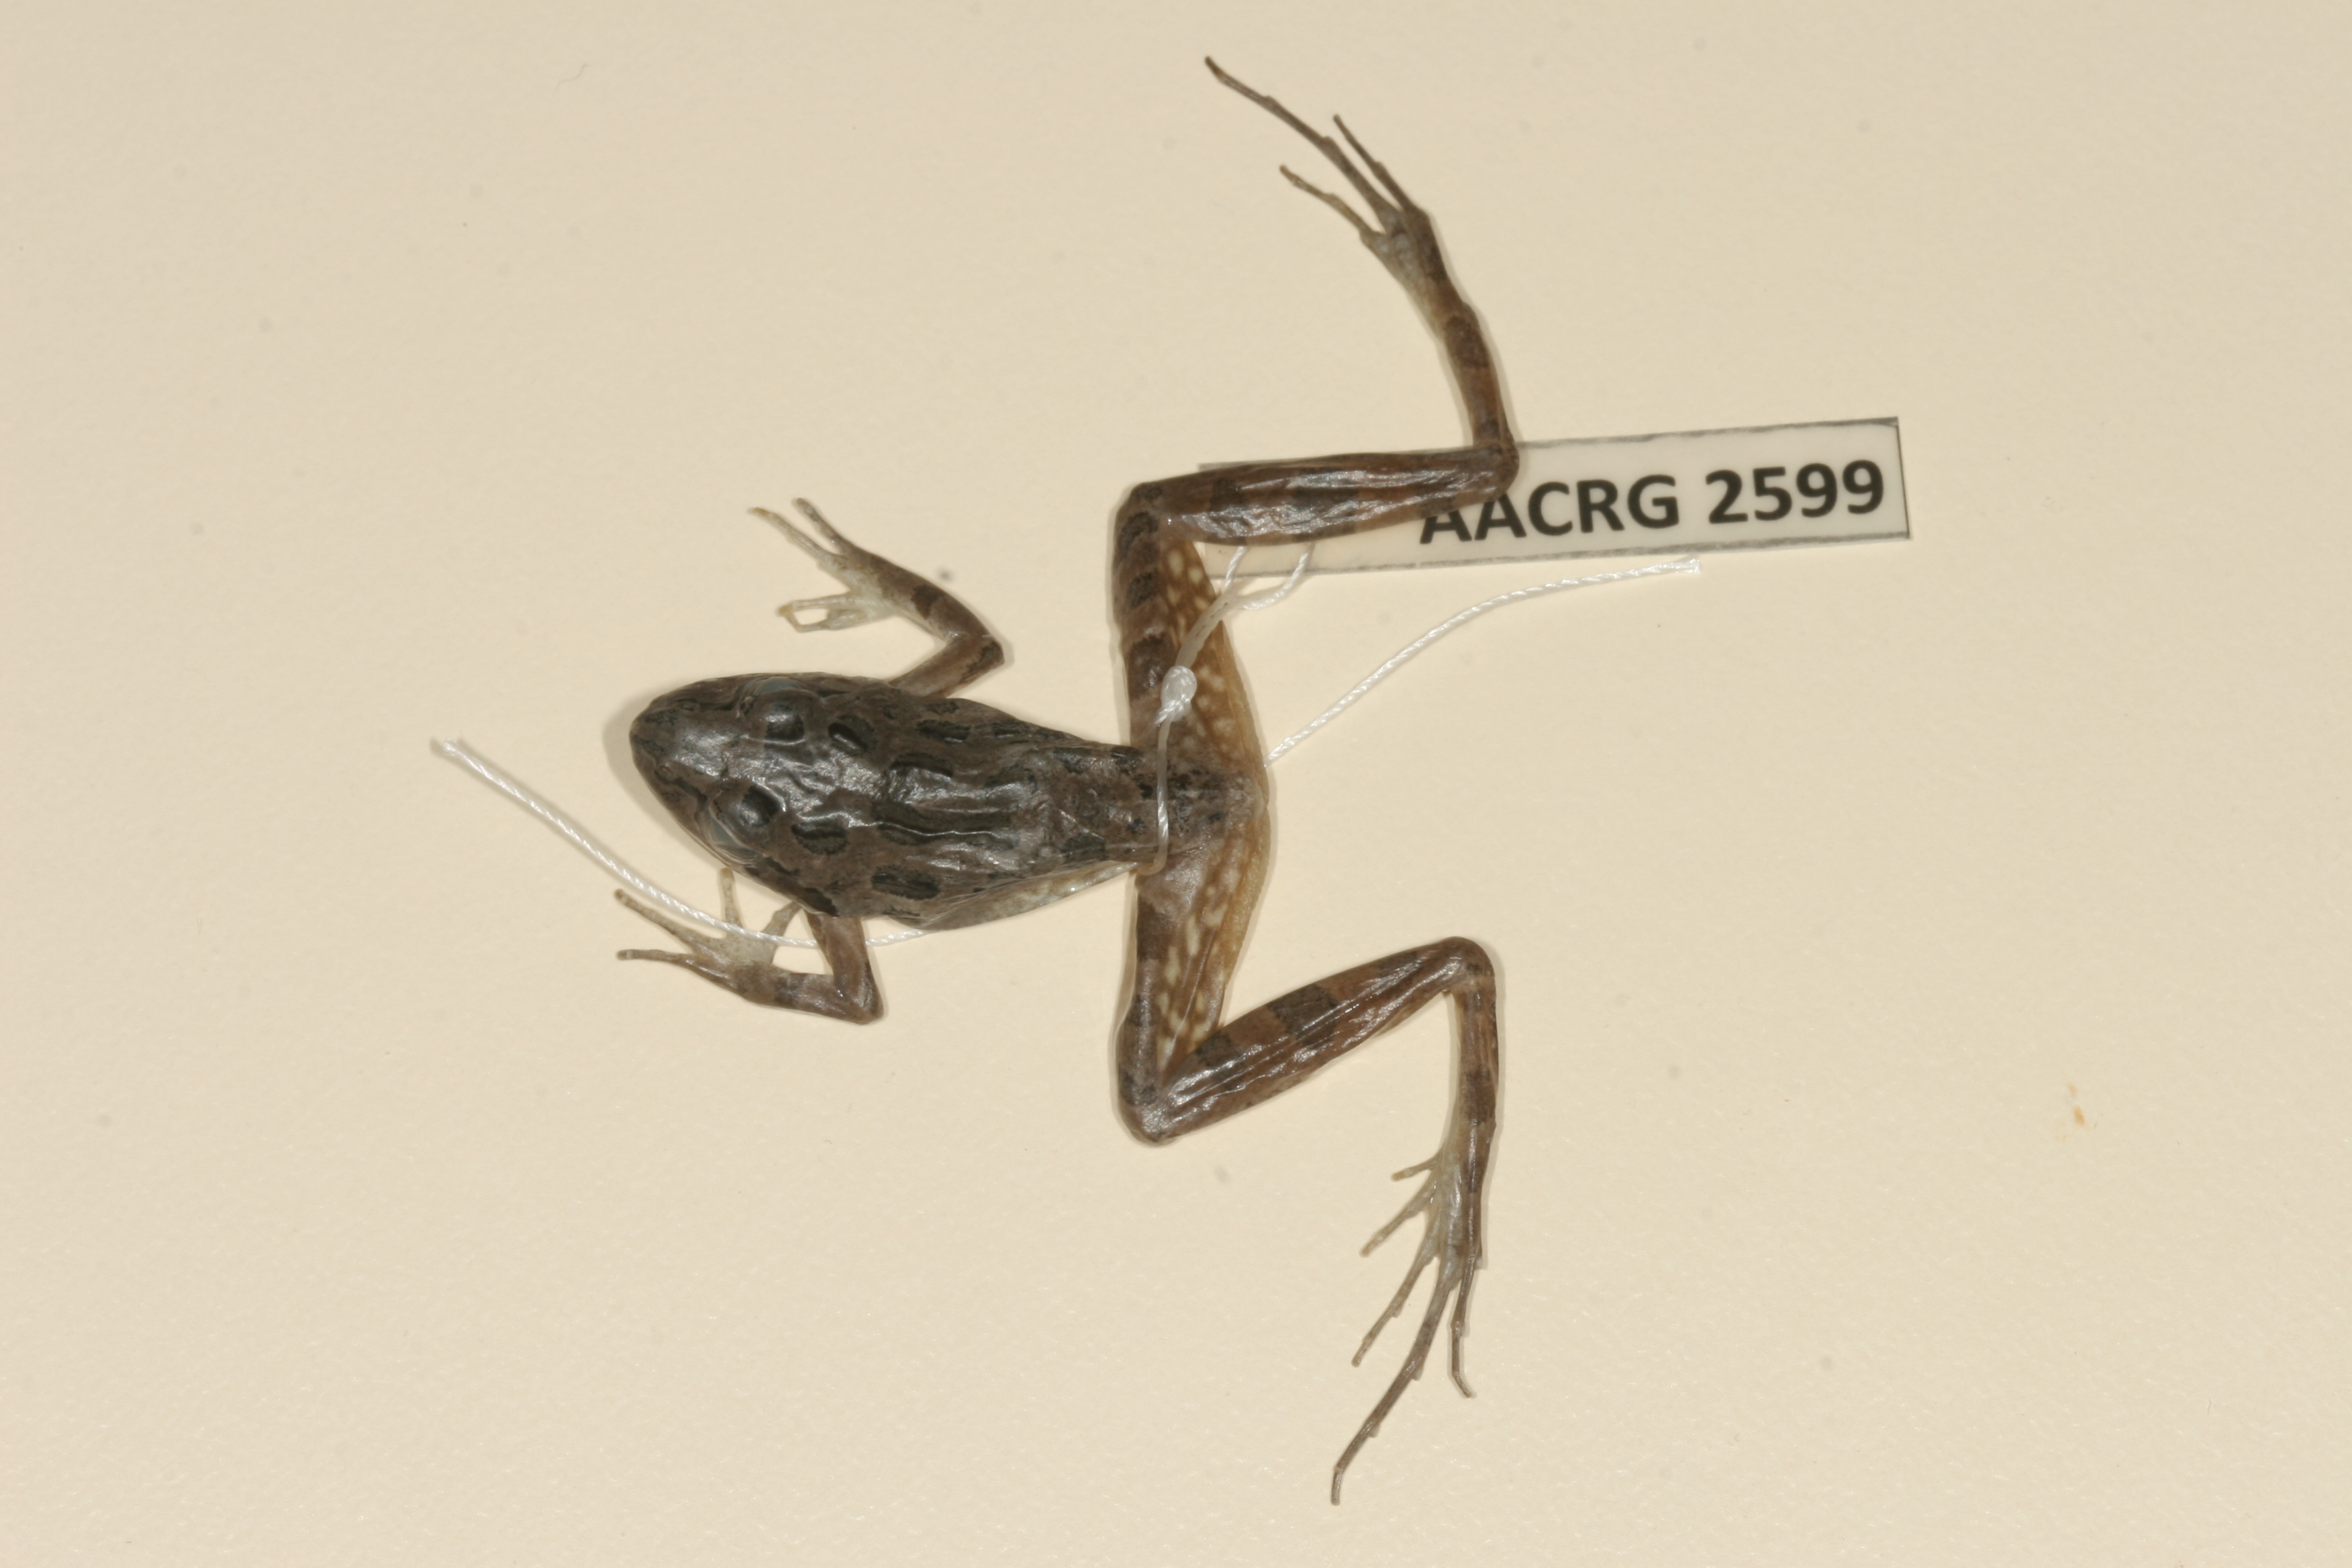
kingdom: Animalia
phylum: Chordata
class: Amphibia
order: Anura
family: Pyxicephalidae
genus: Strongylopus
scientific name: Strongylopus grayii
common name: Gray's stream frog
